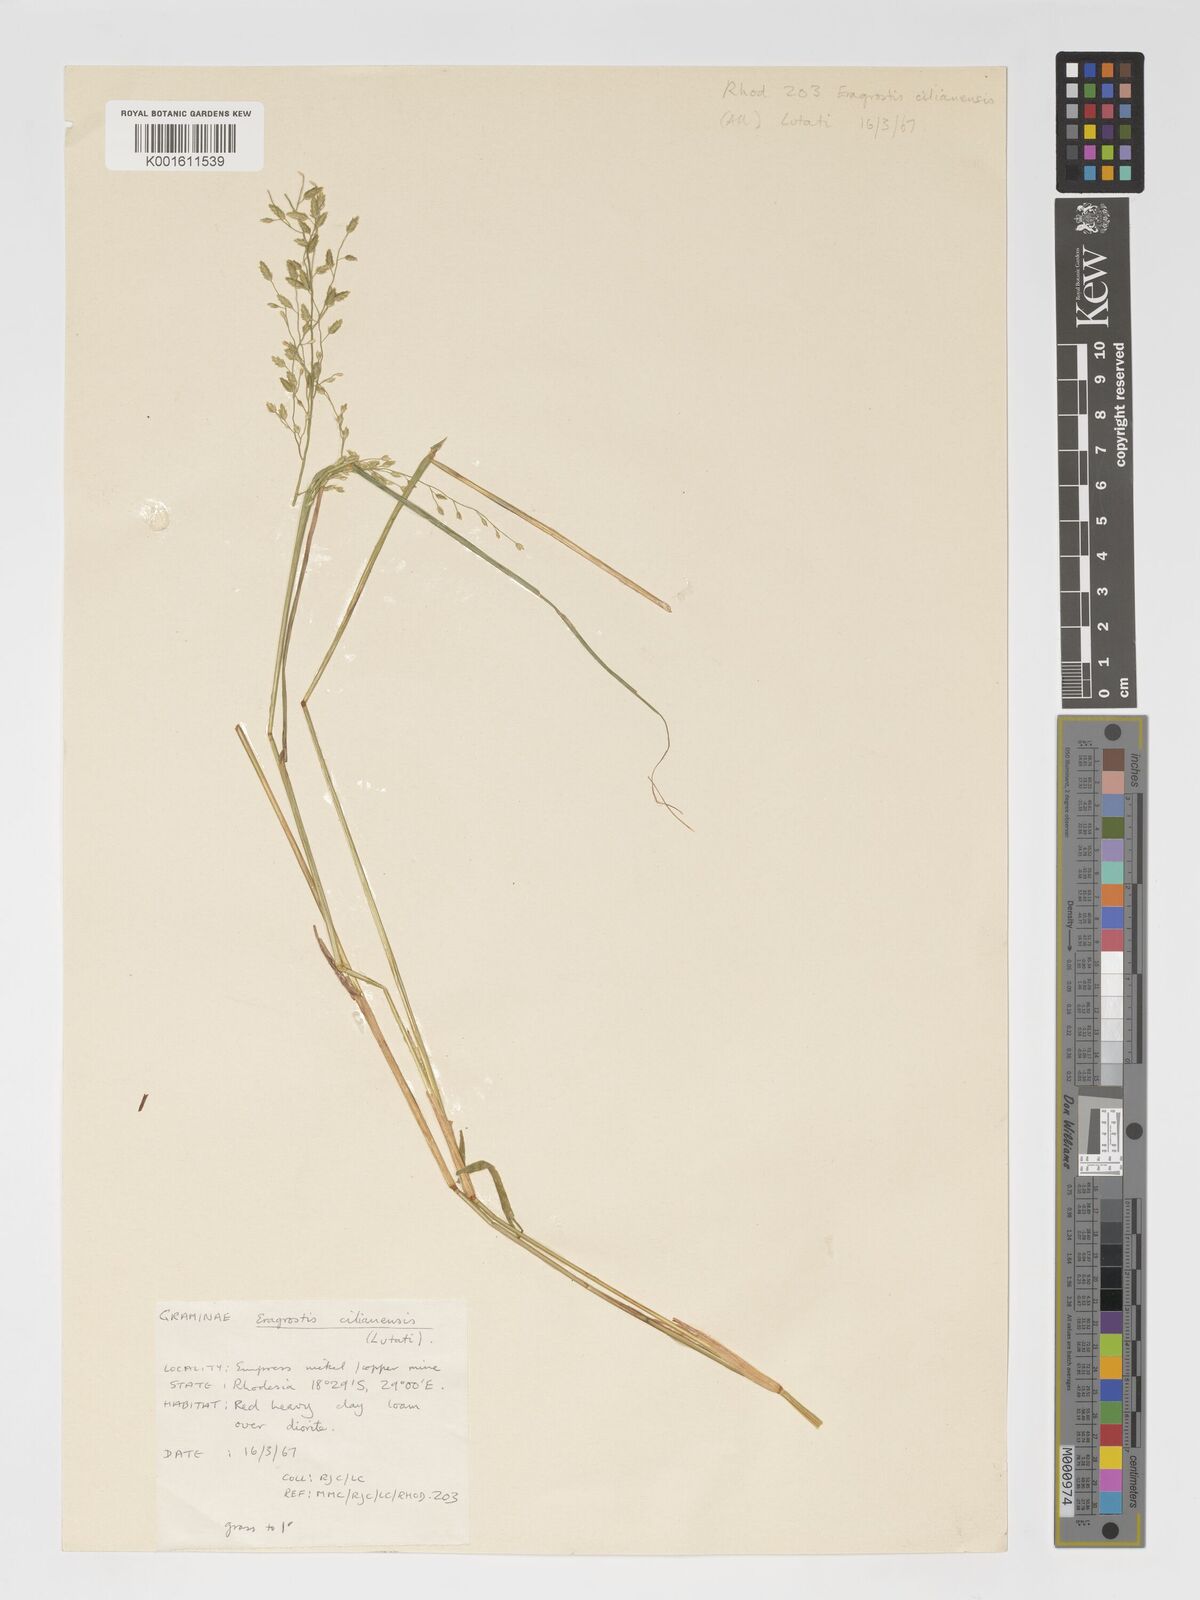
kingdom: Plantae
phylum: Tracheophyta
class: Liliopsida
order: Poales
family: Poaceae
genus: Eragrostis
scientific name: Eragrostis cilianensis
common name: Stinkgrass
